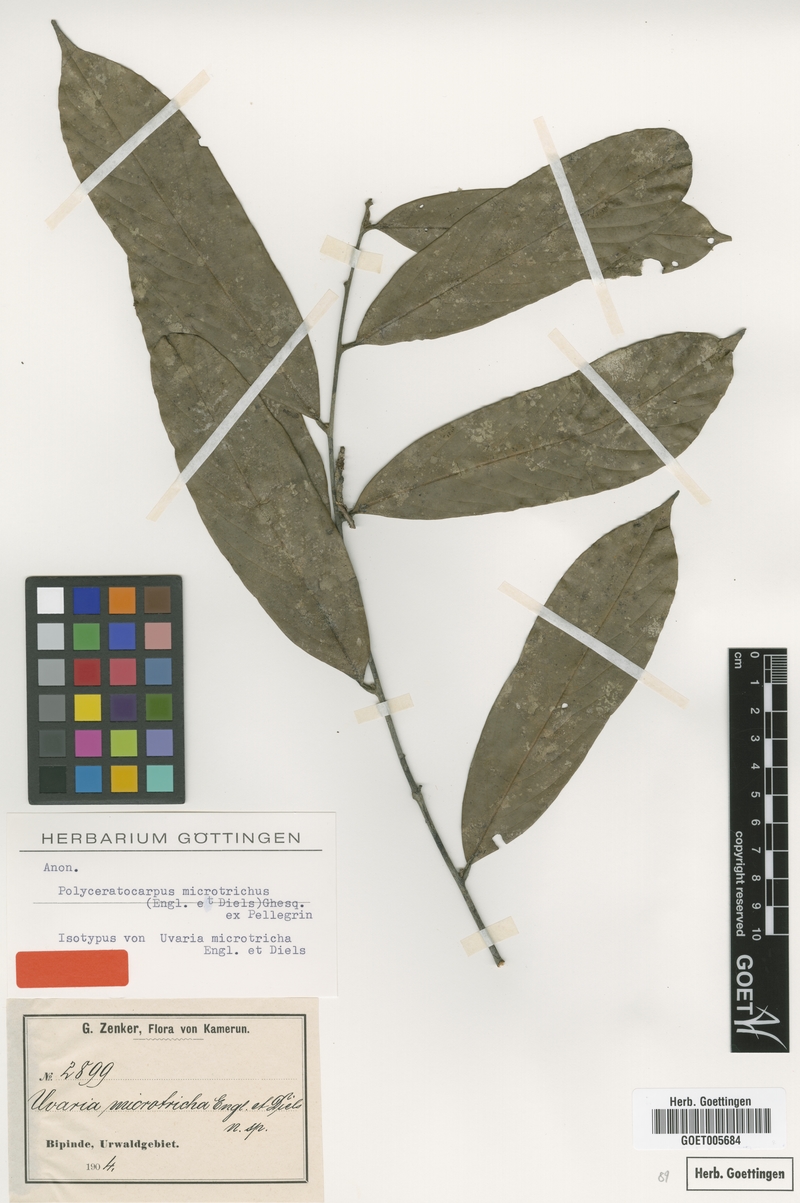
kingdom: Plantae
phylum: Tracheophyta
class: Magnoliopsida
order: Magnoliales
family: Annonaceae
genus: Polyceratocarpus
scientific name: Polyceratocarpus microtrichus
